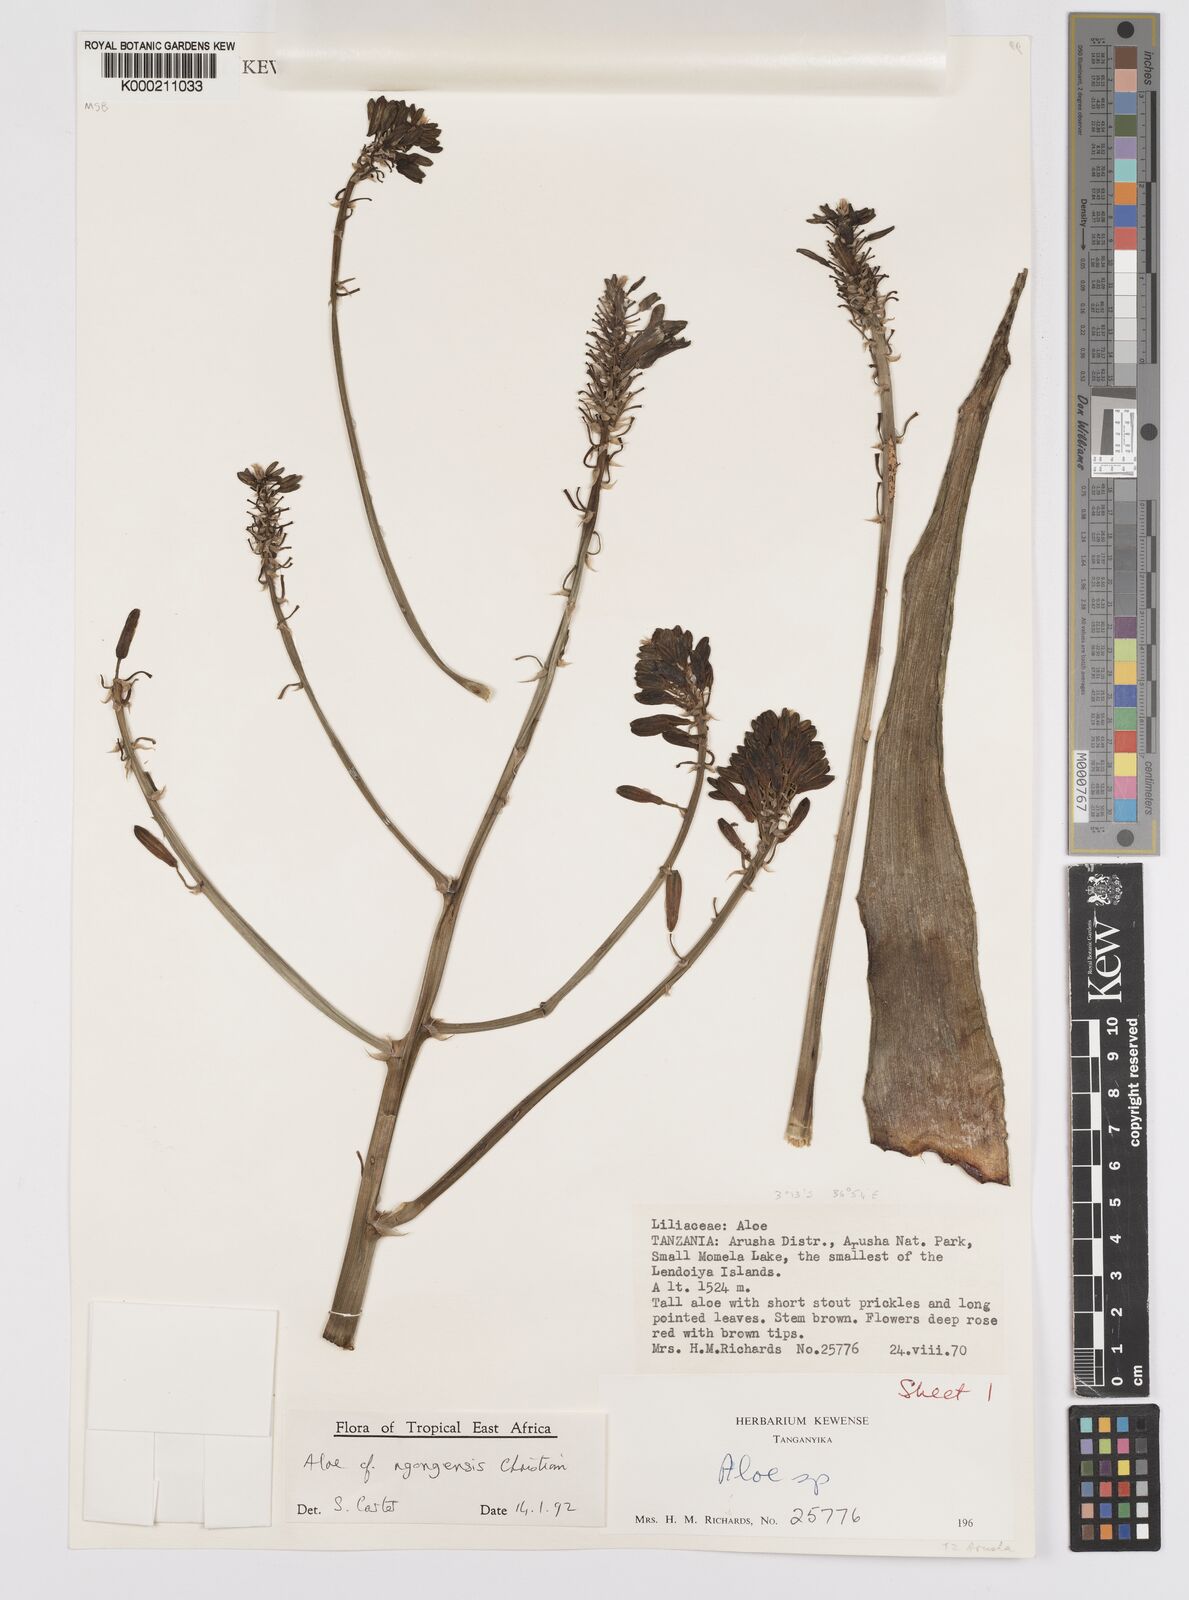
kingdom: Plantae
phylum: Tracheophyta
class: Liliopsida
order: Asparagales
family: Asphodelaceae
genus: Aloe
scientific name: Aloe ngongensis
